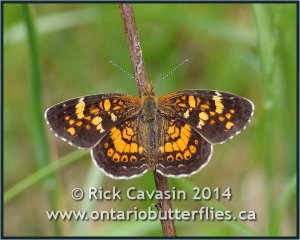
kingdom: Animalia
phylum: Arthropoda
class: Insecta
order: Lepidoptera
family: Nymphalidae
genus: Phyciodes
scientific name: Phyciodes batesii
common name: Tawny Crescent
